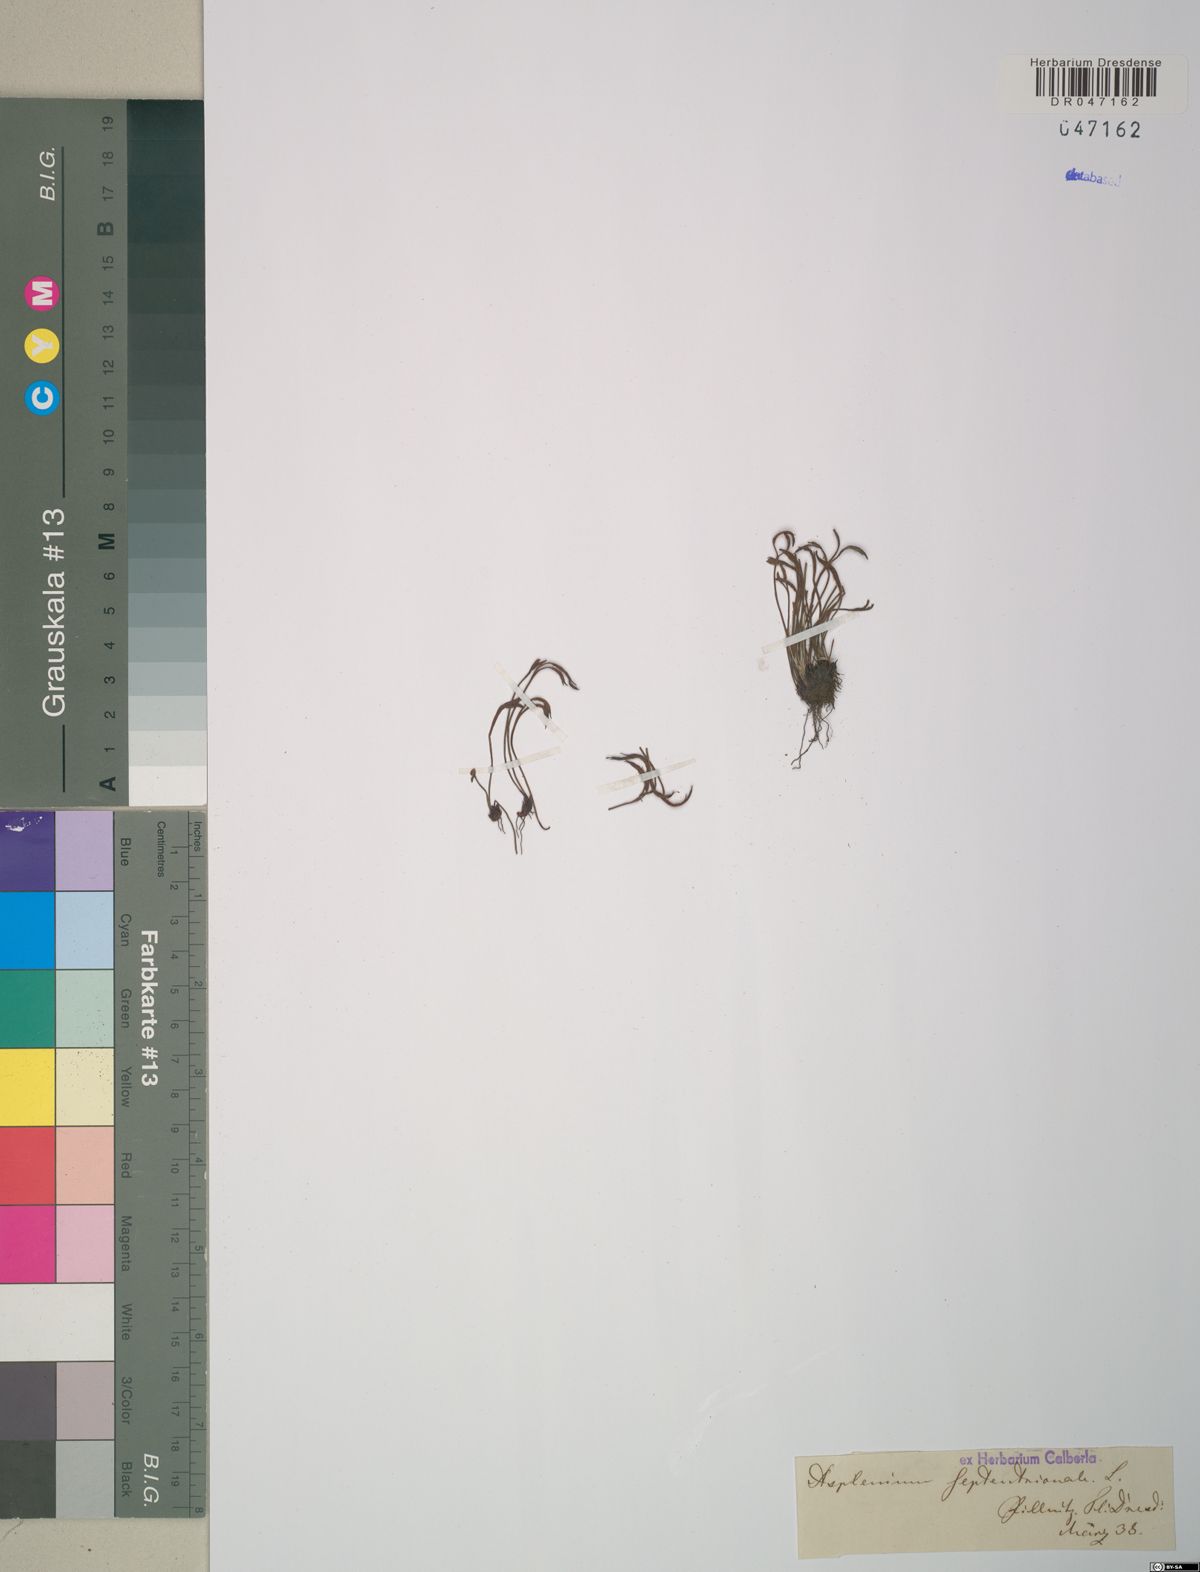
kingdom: Plantae
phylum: Tracheophyta
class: Polypodiopsida
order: Polypodiales
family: Aspleniaceae
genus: Asplenium
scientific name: Asplenium septentrionale
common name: Forked spleenwort
